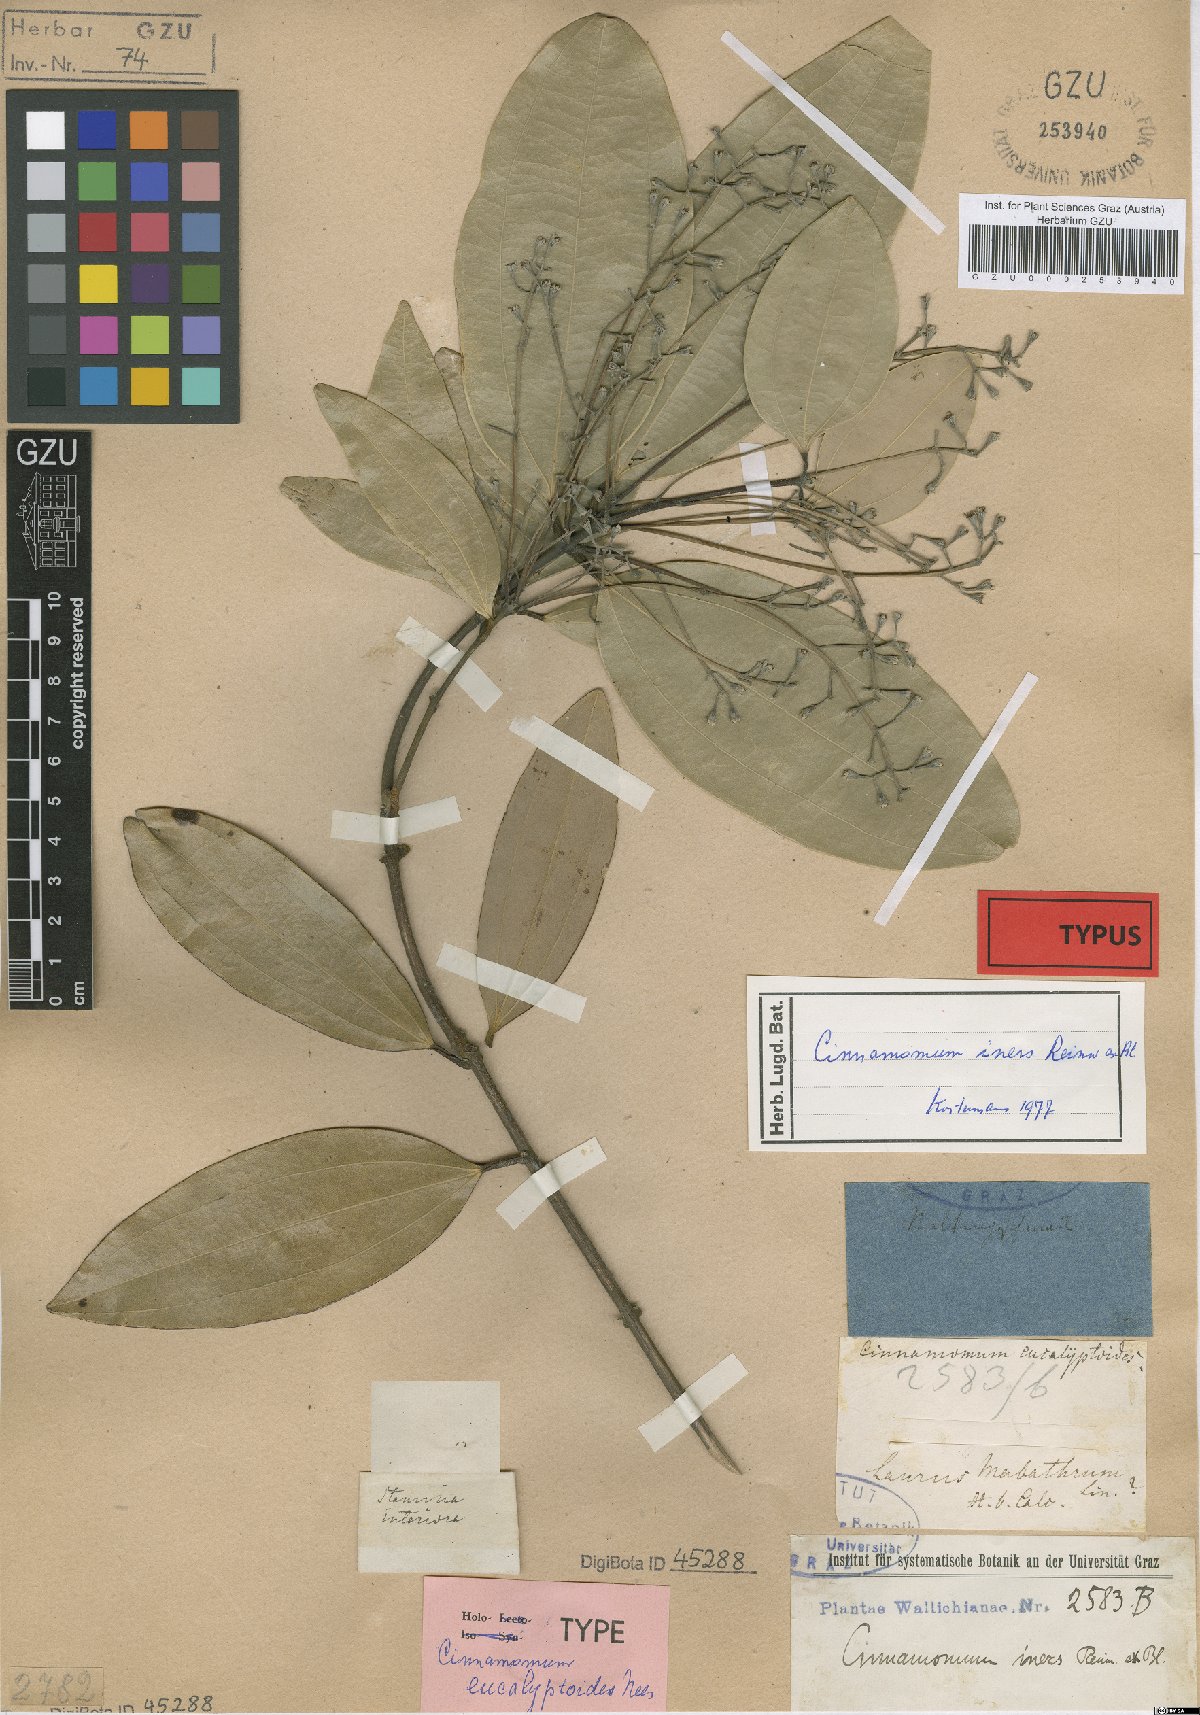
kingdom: Plantae
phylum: Tracheophyta
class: Magnoliopsida
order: Laurales
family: Lauraceae
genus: Cinnamomum
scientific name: Cinnamomum iners
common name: Wild cinnamon
